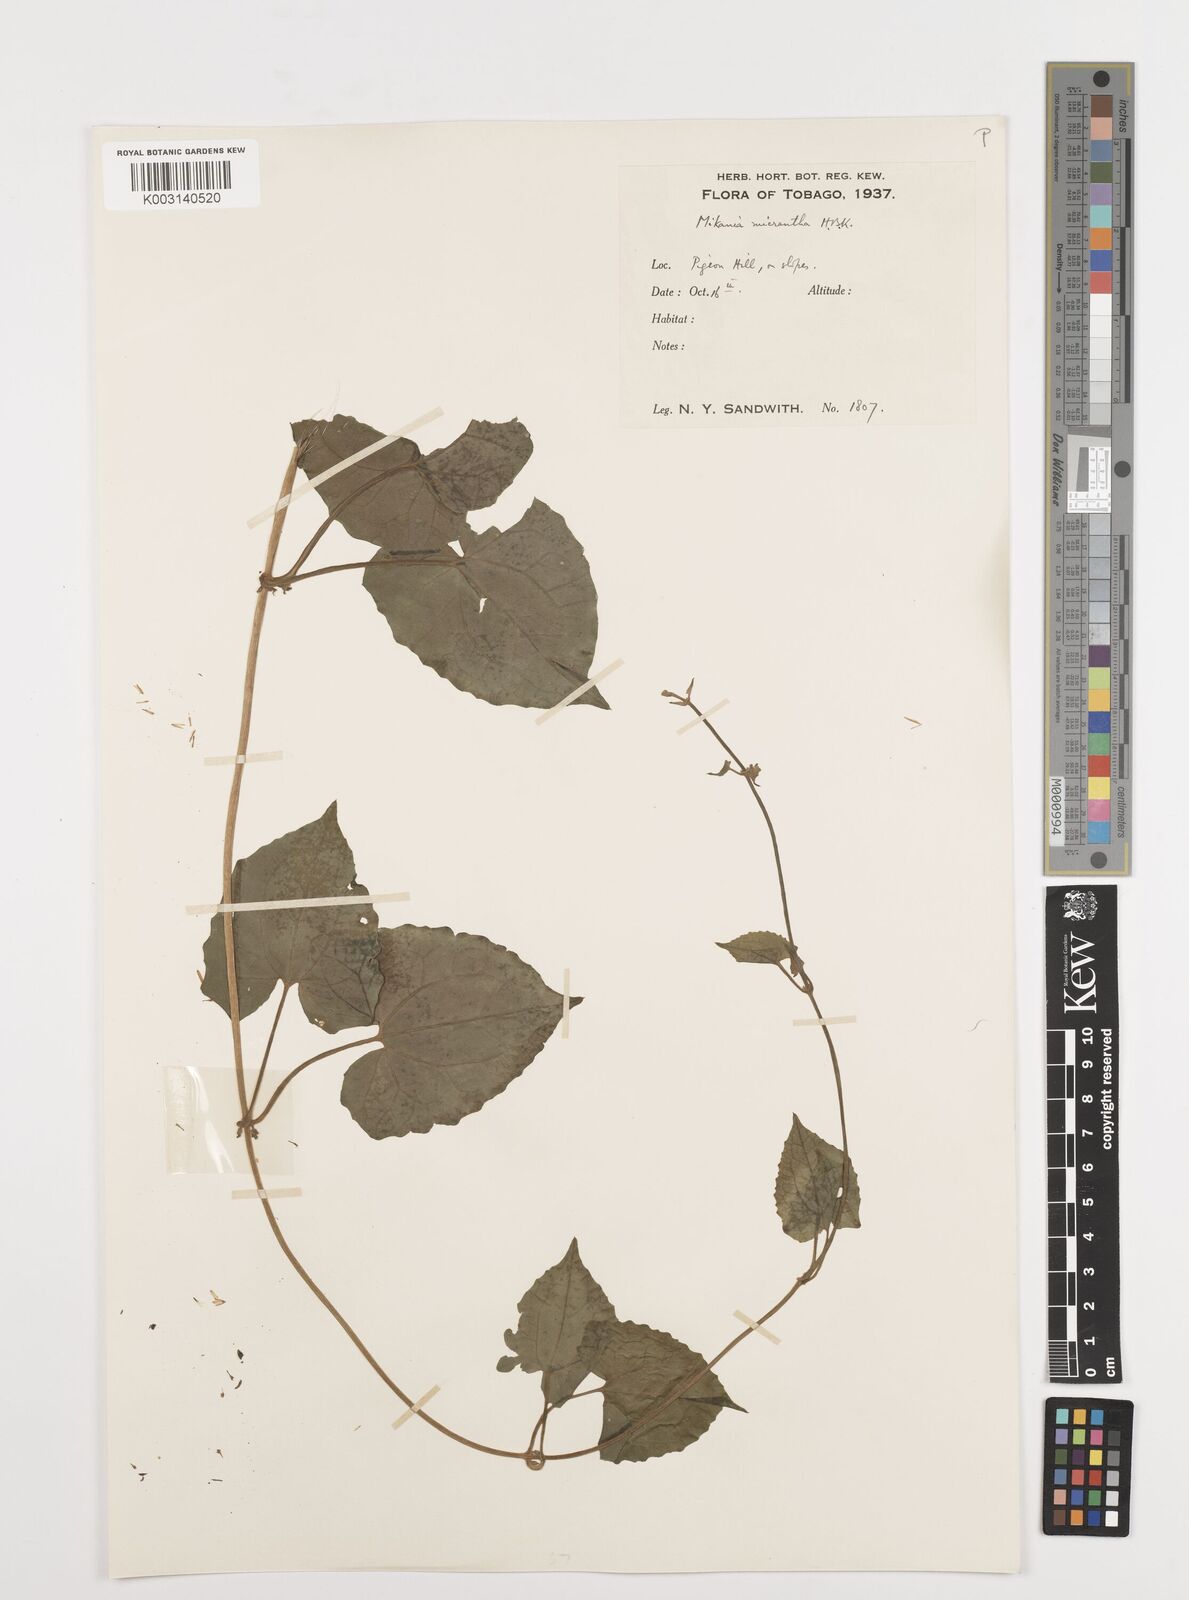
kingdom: Plantae
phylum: Tracheophyta
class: Magnoliopsida
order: Asterales
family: Asteraceae
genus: Mikania
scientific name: Mikania micrantha
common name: Mile-a-minute
